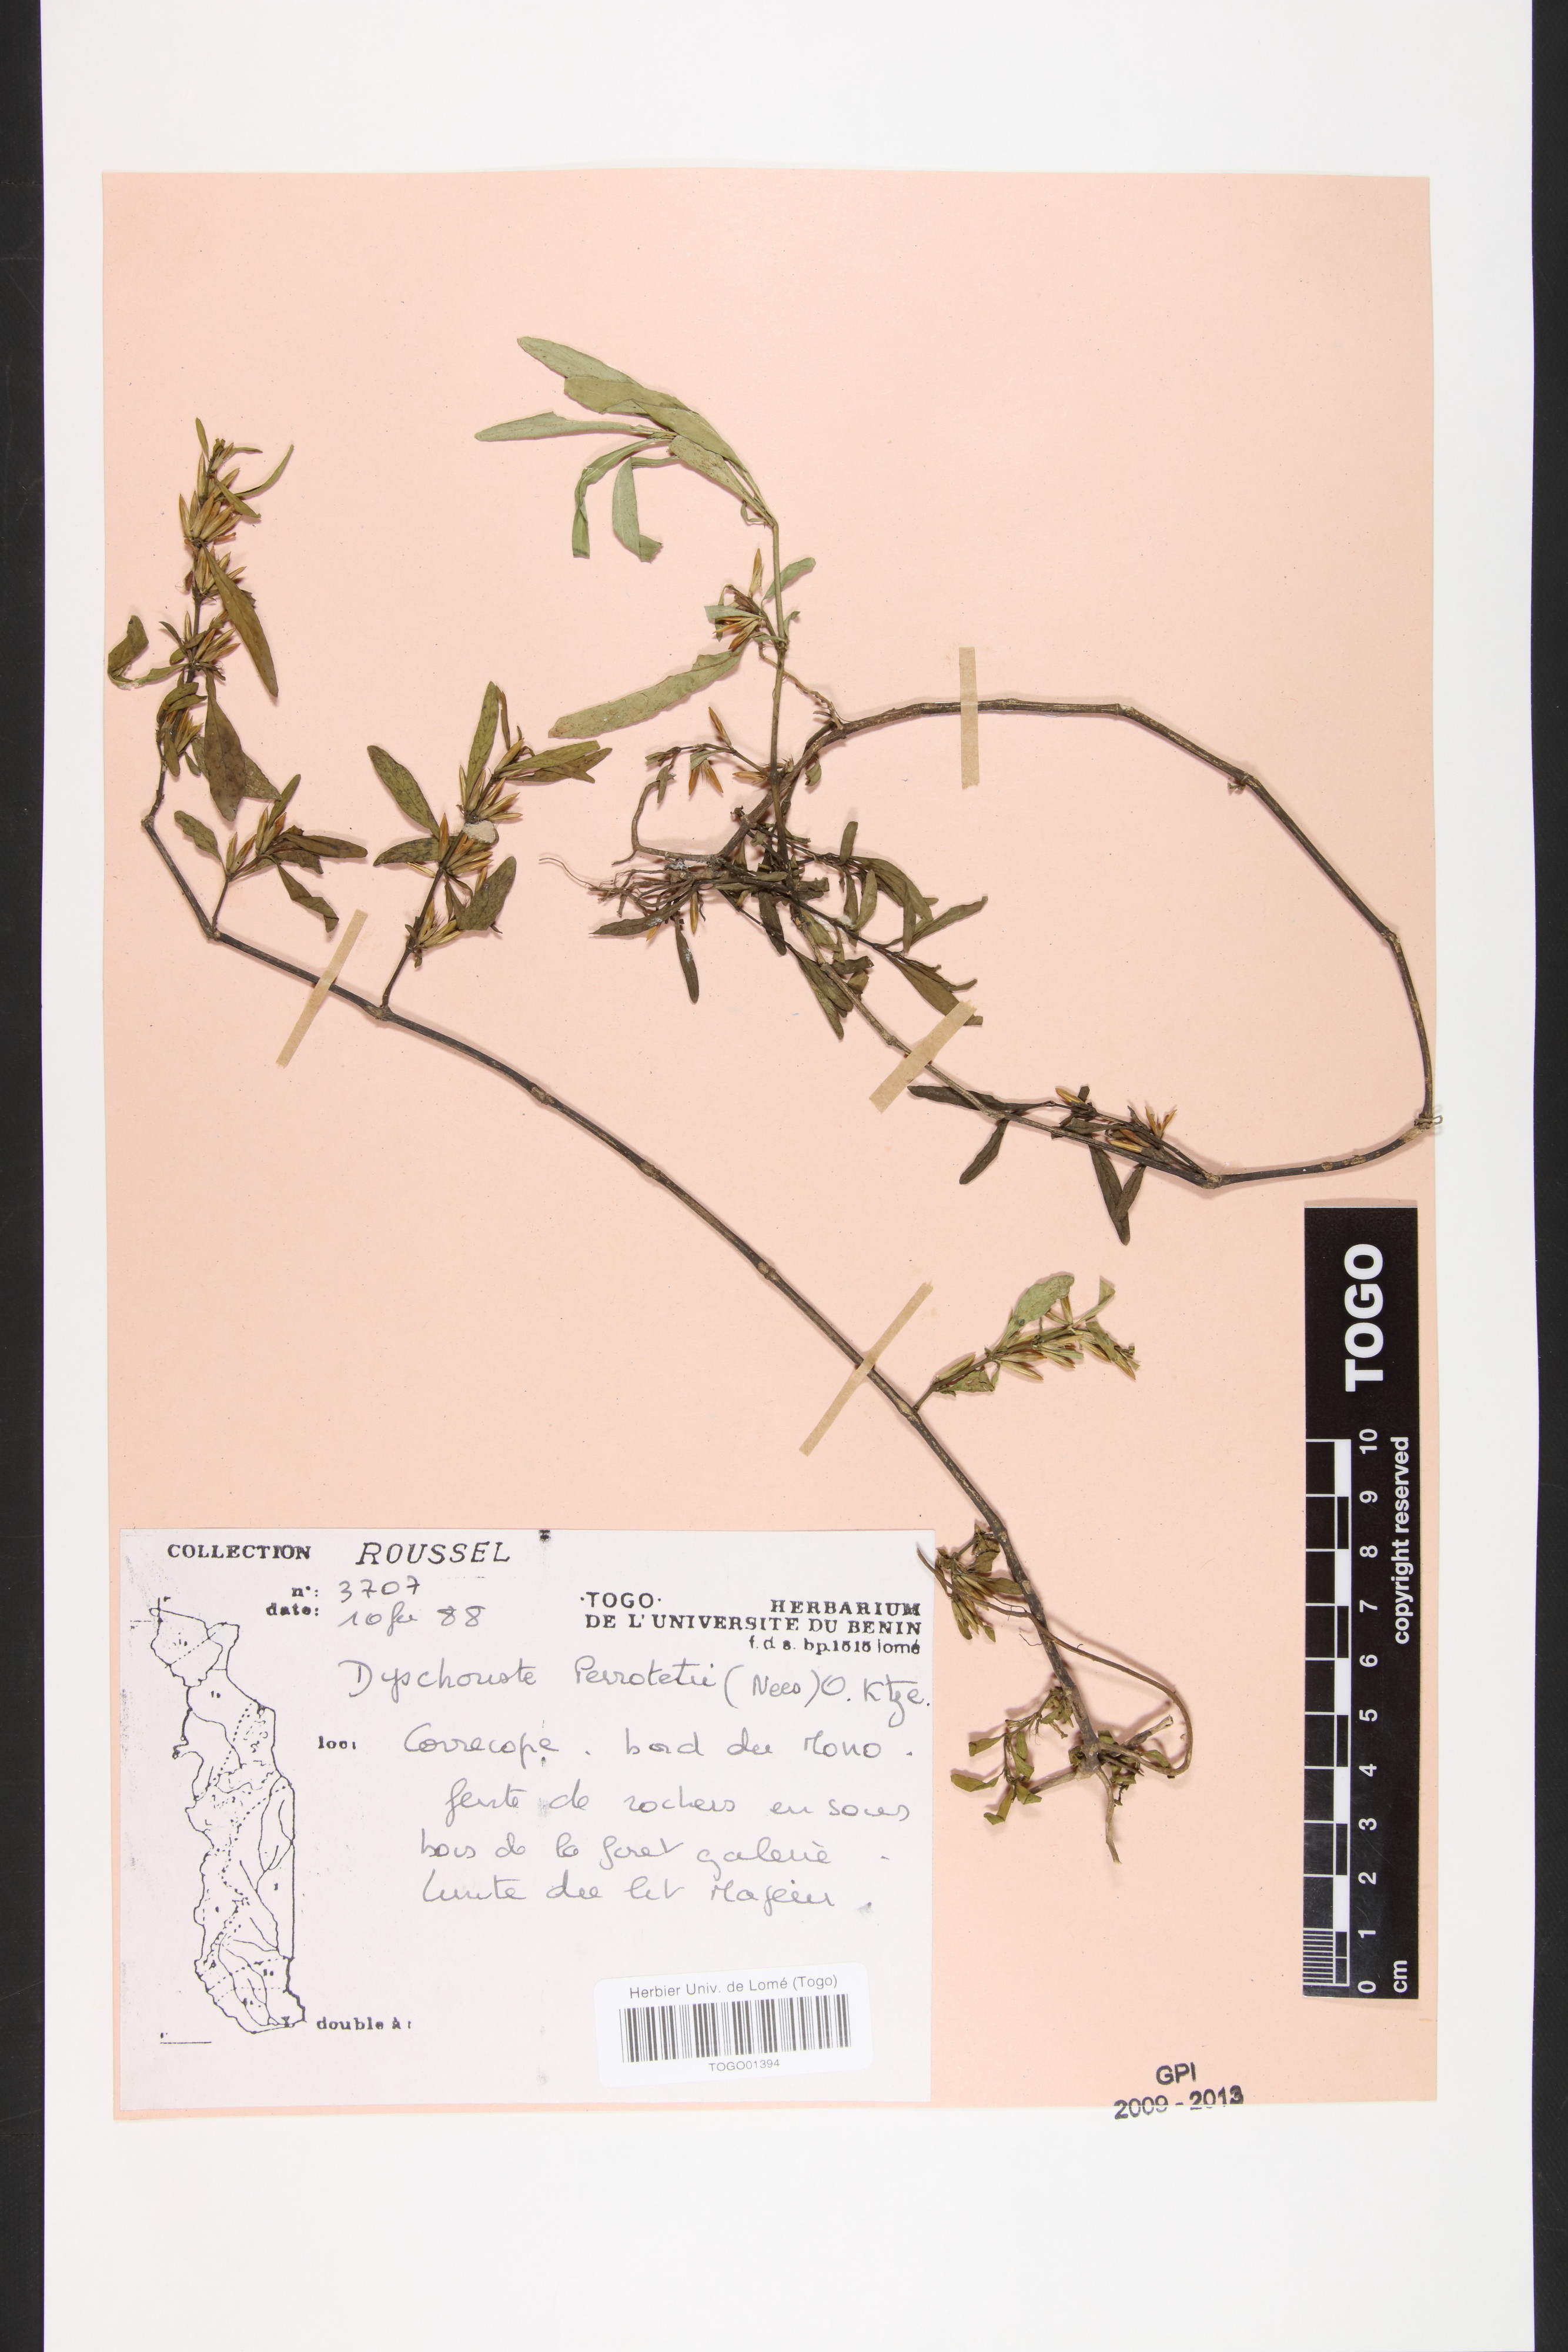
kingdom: Plantae
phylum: Tracheophyta
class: Magnoliopsida
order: Lamiales
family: Acanthaceae
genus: Dyschoriste
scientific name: Dyschoriste nagchana
